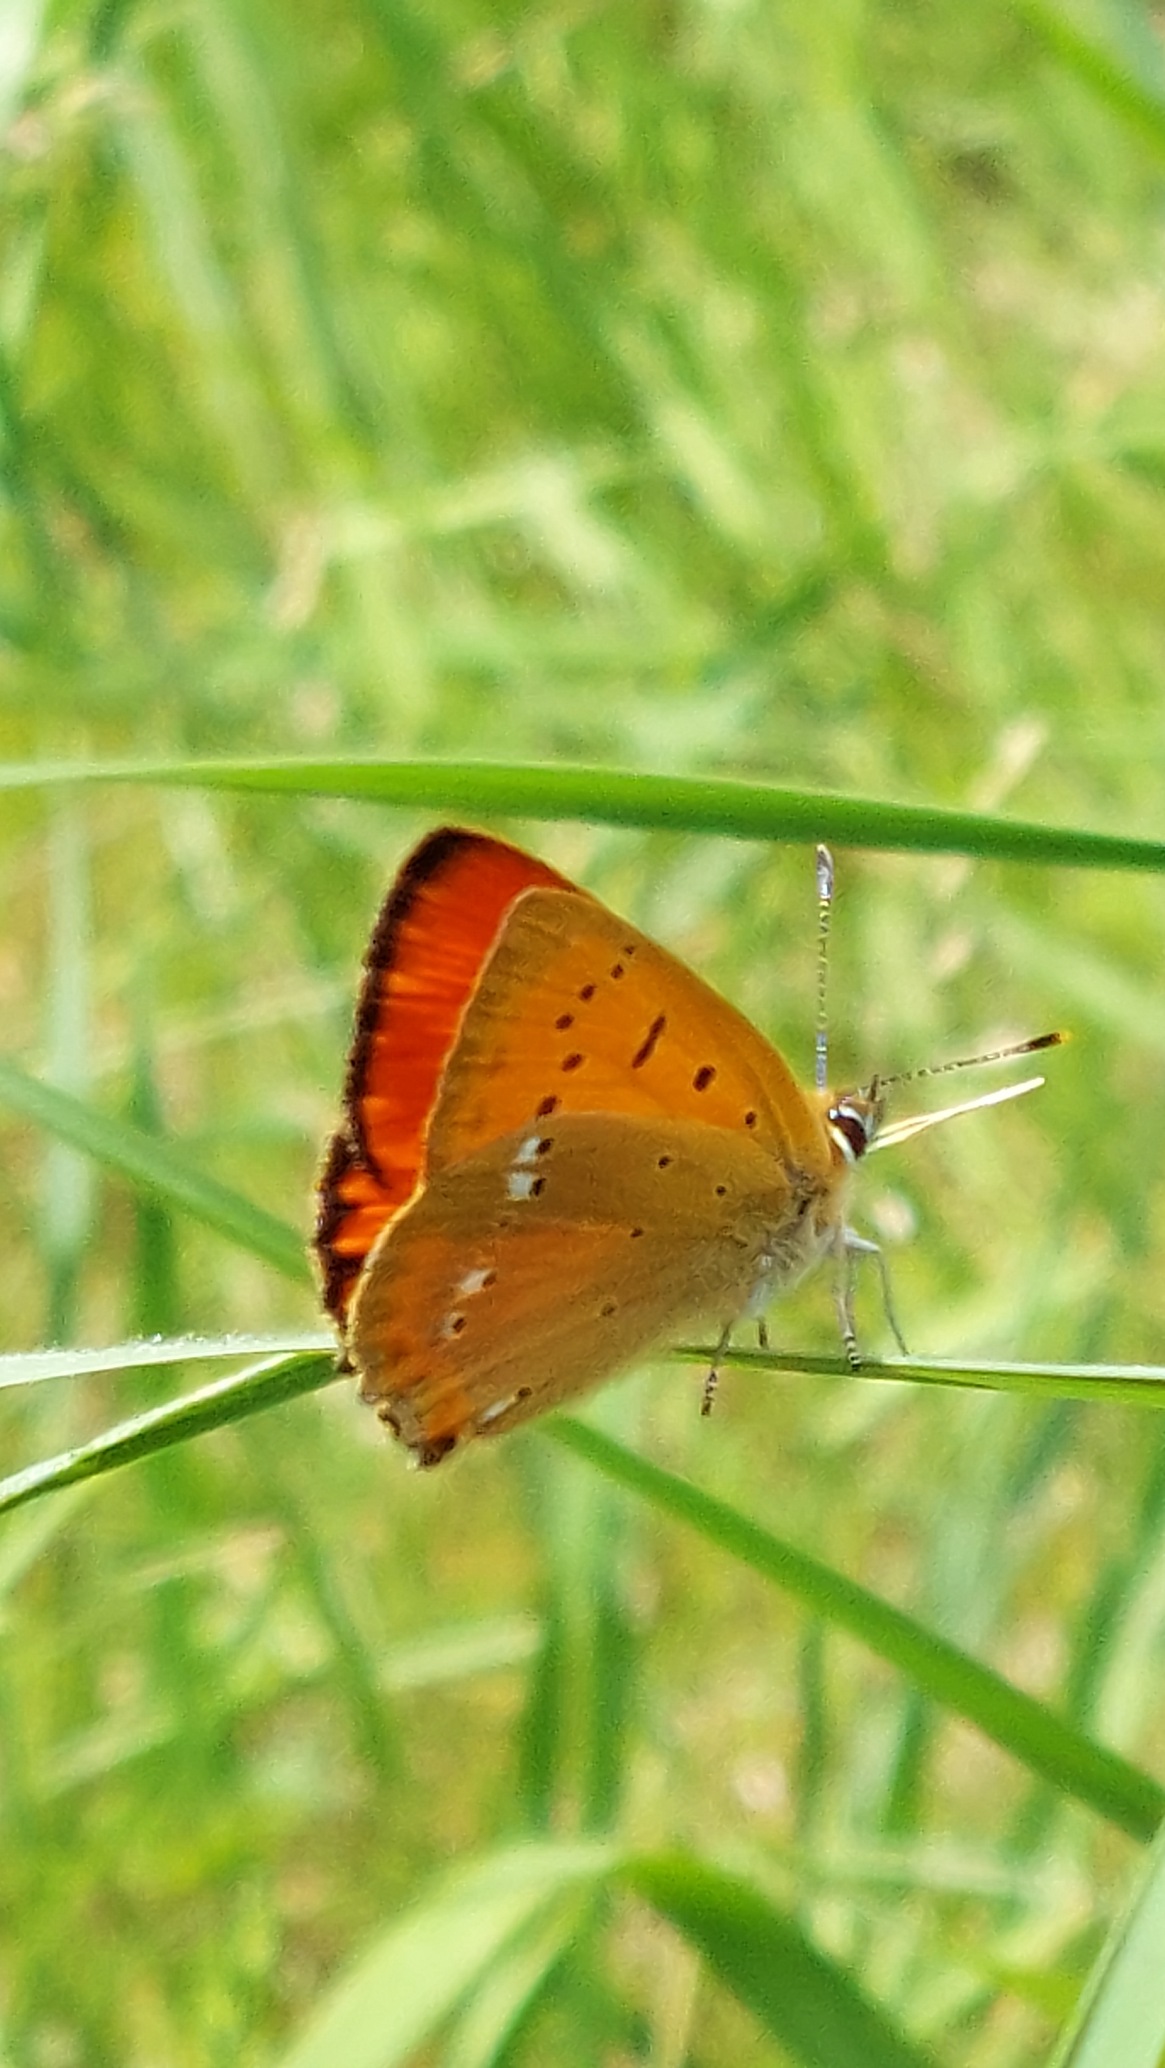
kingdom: Animalia
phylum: Arthropoda
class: Insecta
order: Lepidoptera
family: Lycaenidae
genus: Lycaena
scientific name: Lycaena virgaureae
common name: Dukatsommerfugl
